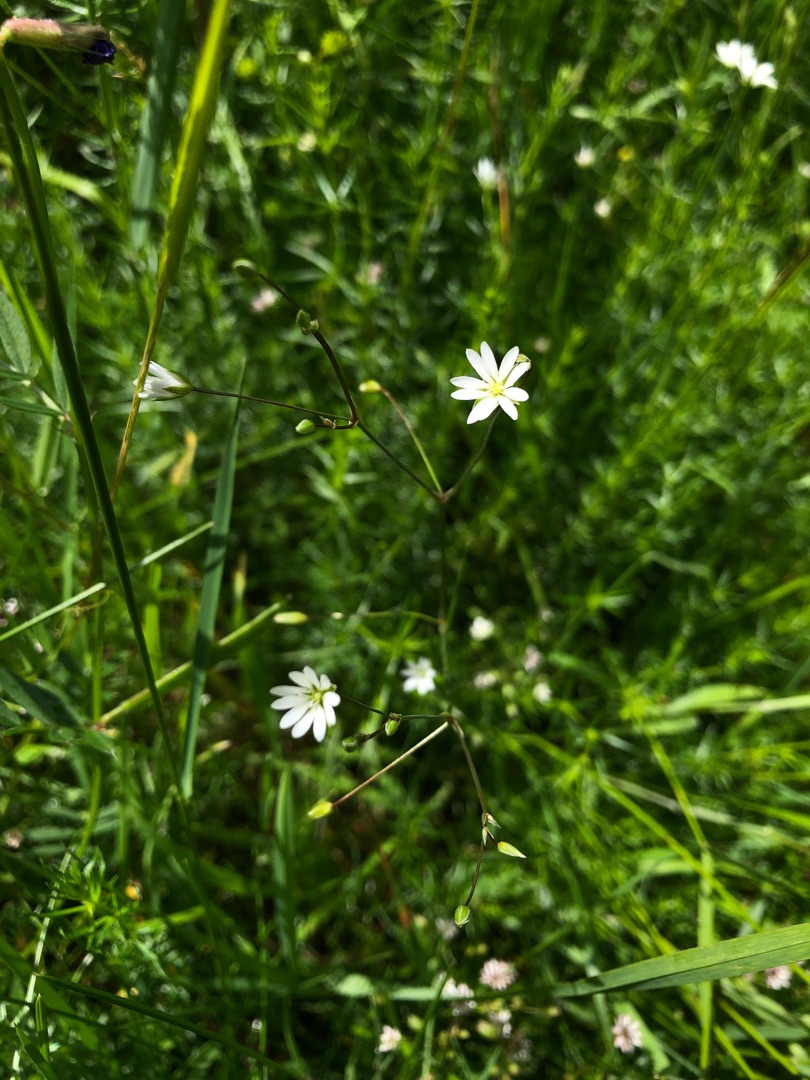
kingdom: Plantae
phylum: Tracheophyta
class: Magnoliopsida
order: Caryophyllales
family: Caryophyllaceae
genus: Stellaria
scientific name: Stellaria graminea
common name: Græsbladet fladstjerne
